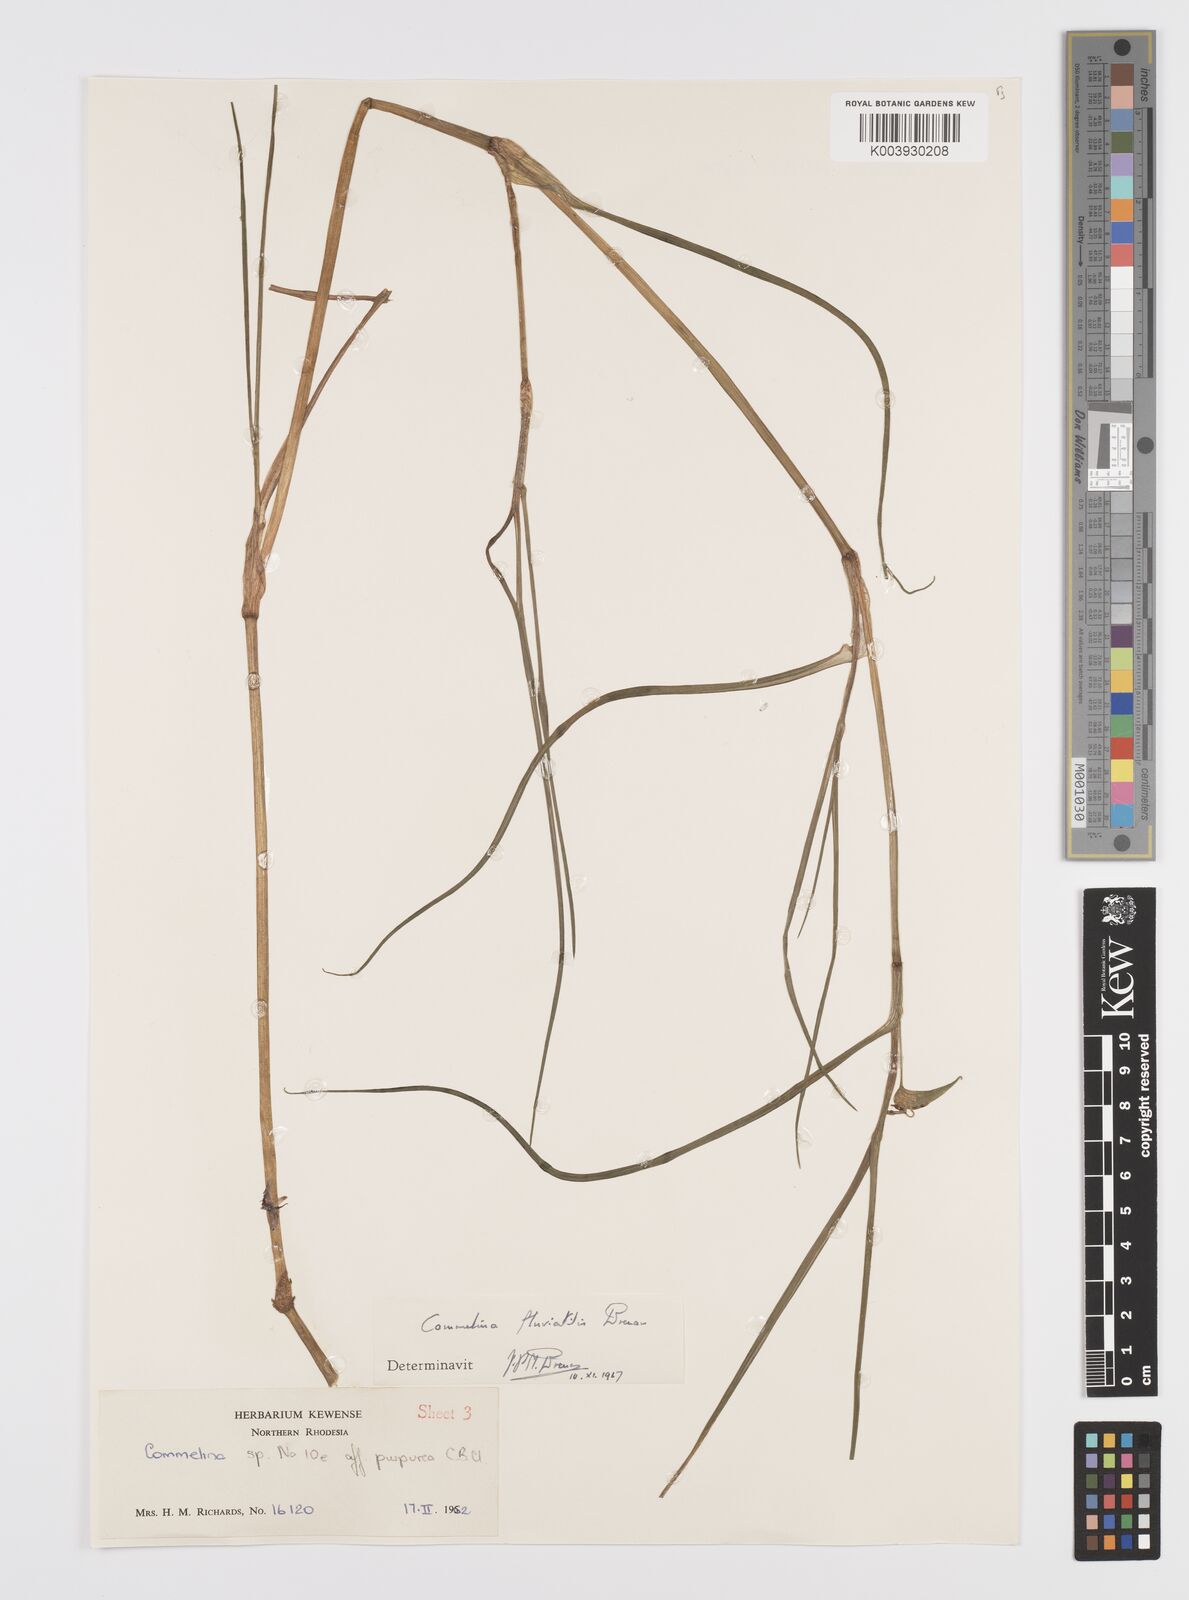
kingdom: Plantae
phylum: Tracheophyta
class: Liliopsida
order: Commelinales
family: Commelinaceae
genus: Commelina
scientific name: Commelina fluviatilis
